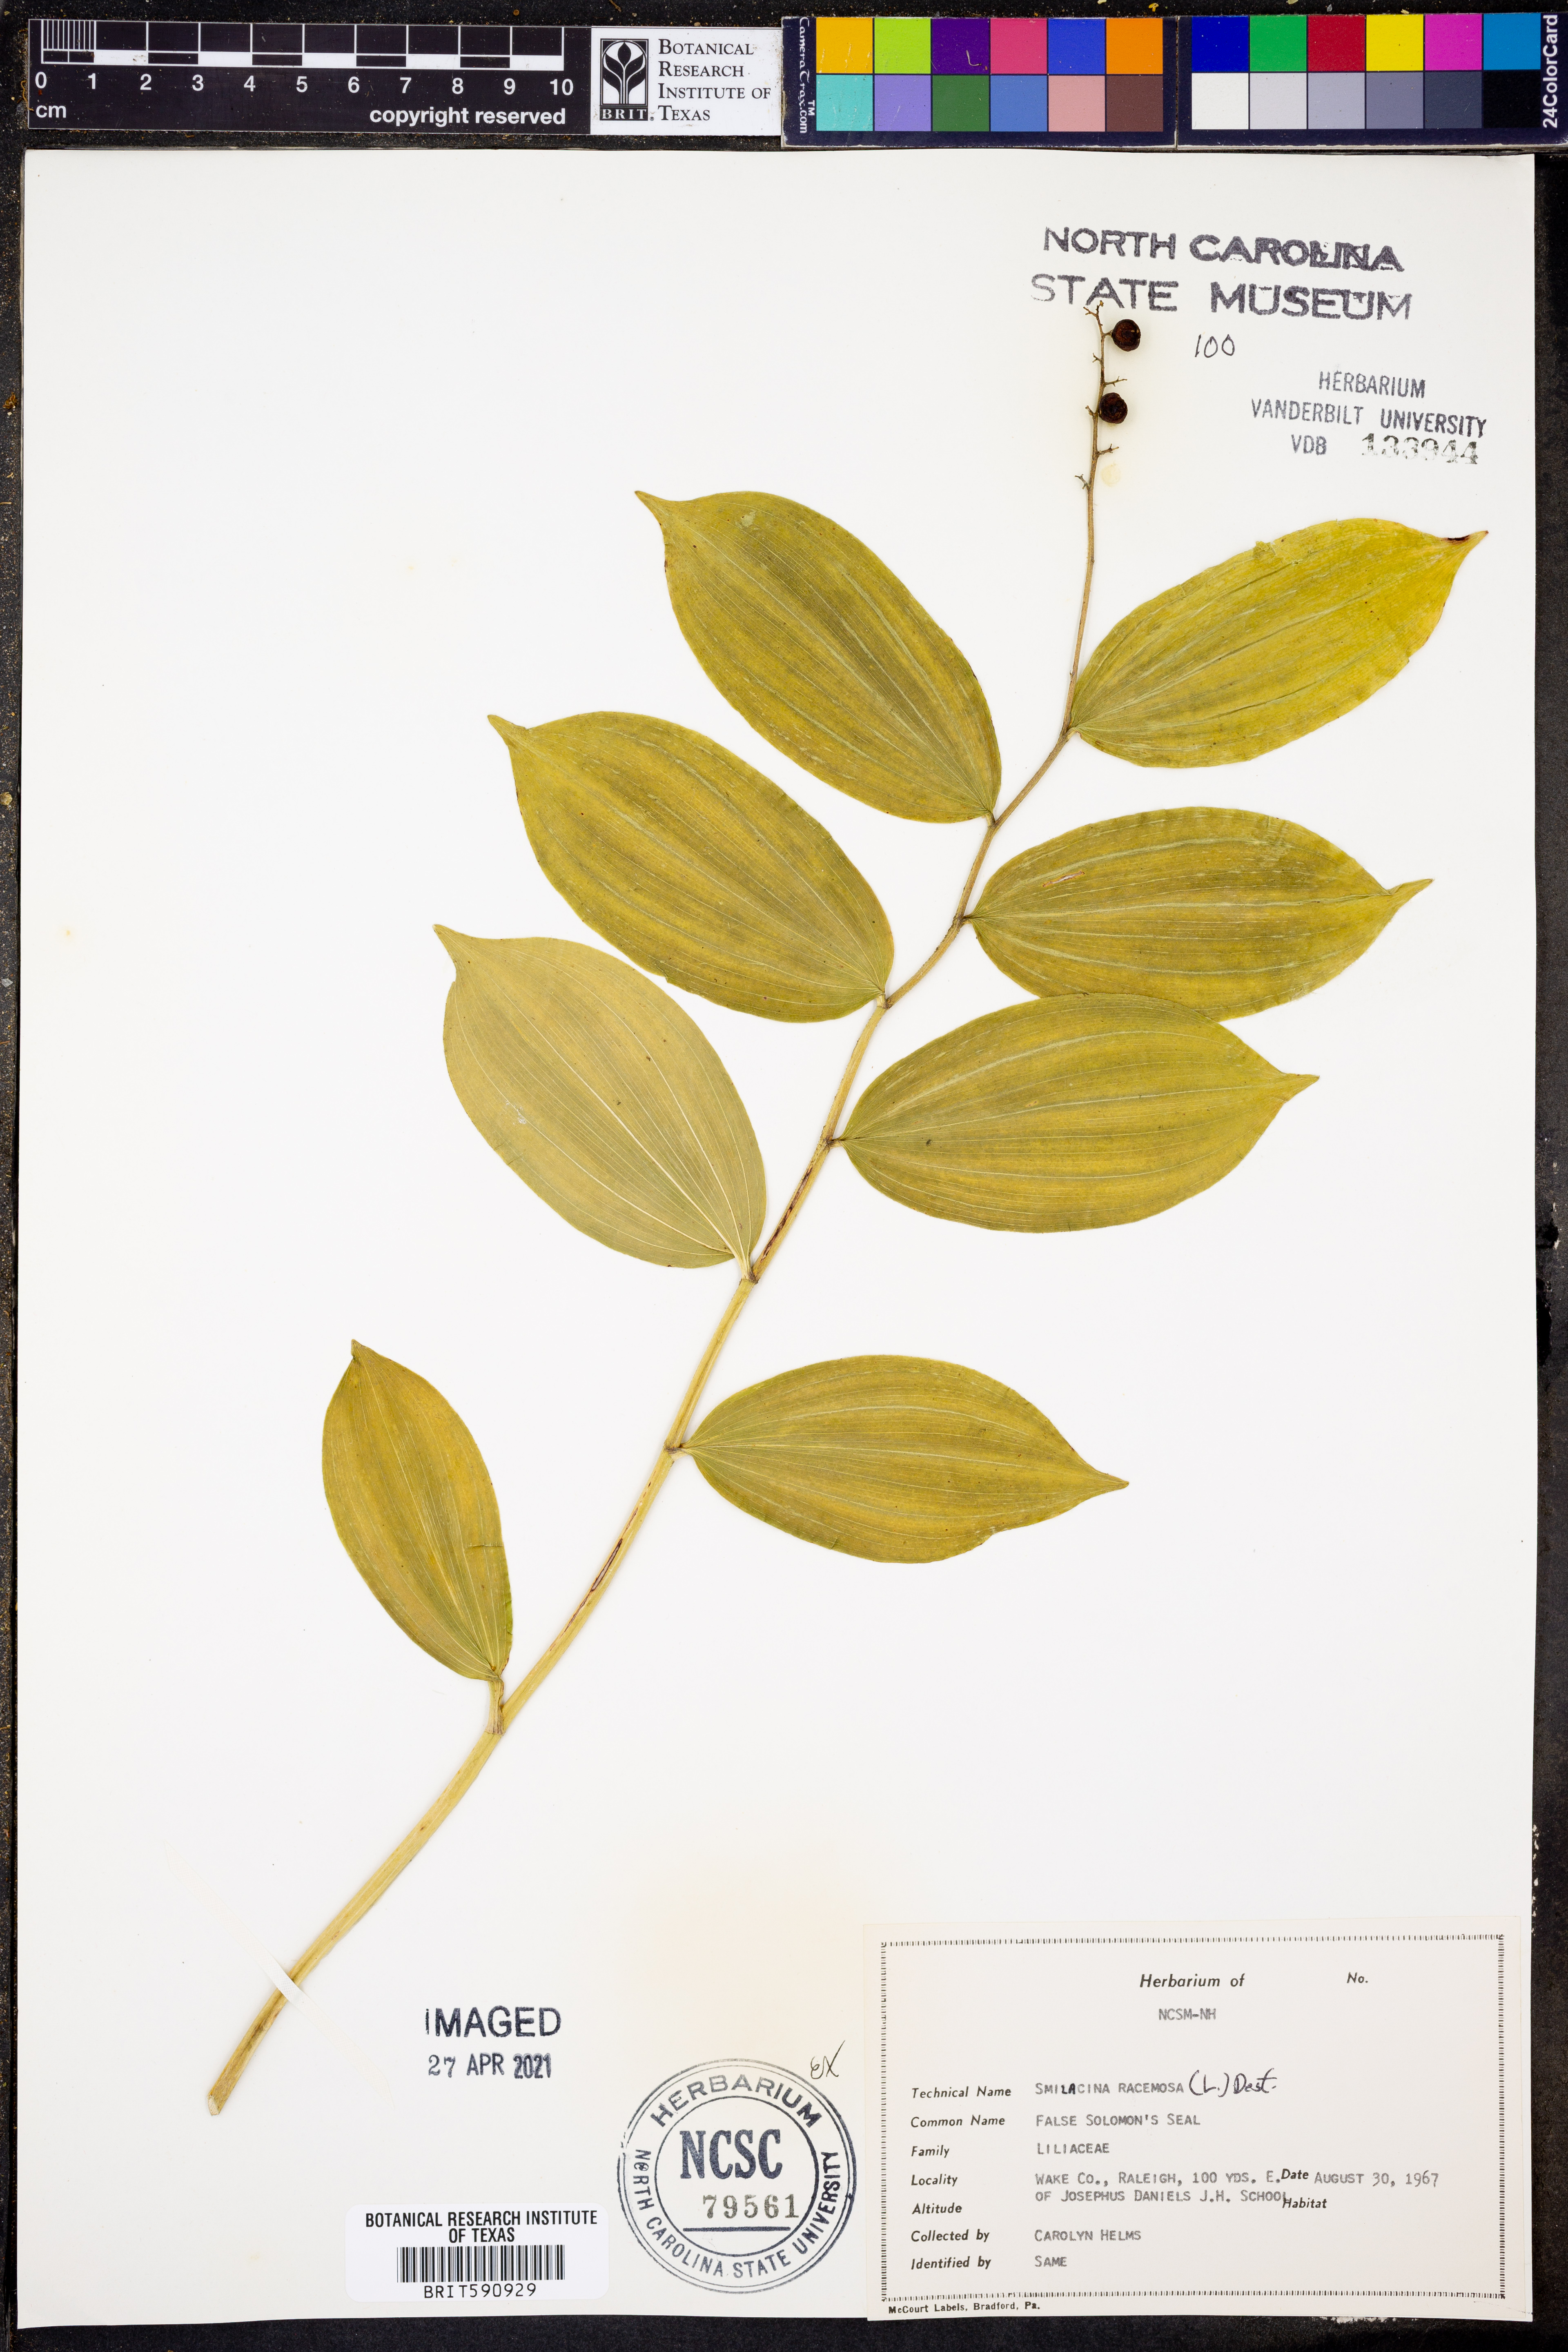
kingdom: Plantae
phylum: Tracheophyta
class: Liliopsida
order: Asparagales
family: Asparagaceae
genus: Maianthemum
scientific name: Maianthemum racemosum
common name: False spikenard
